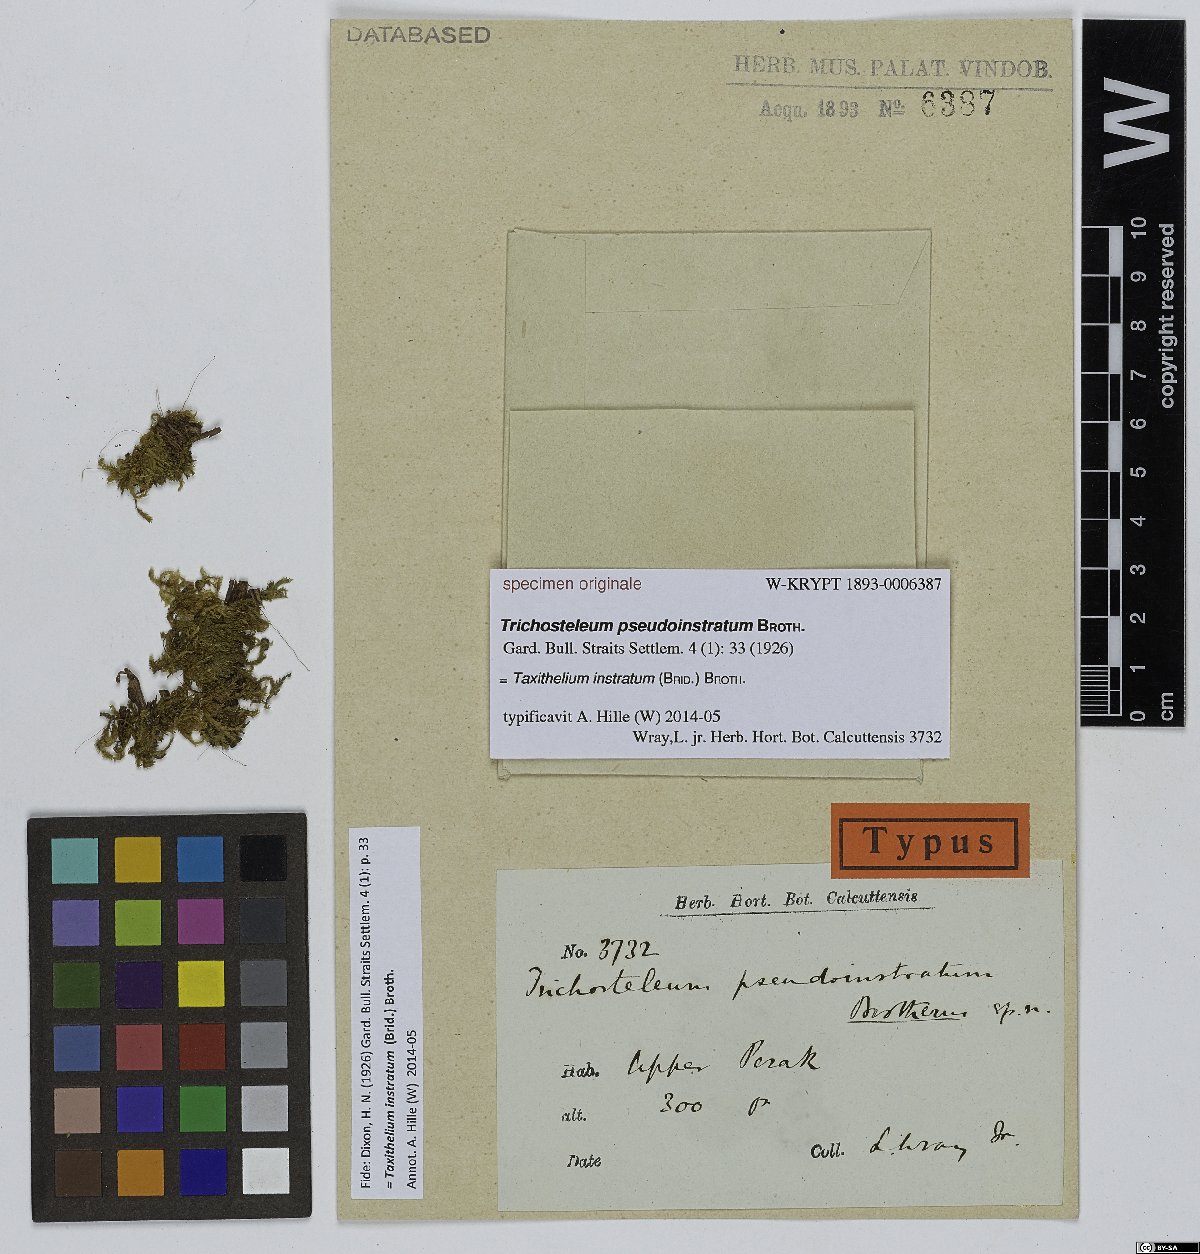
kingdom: Plantae
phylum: Bryophyta
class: Bryopsida
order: Hypnales
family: Sematophyllaceae
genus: Trichosteleum
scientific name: Trichosteleum
